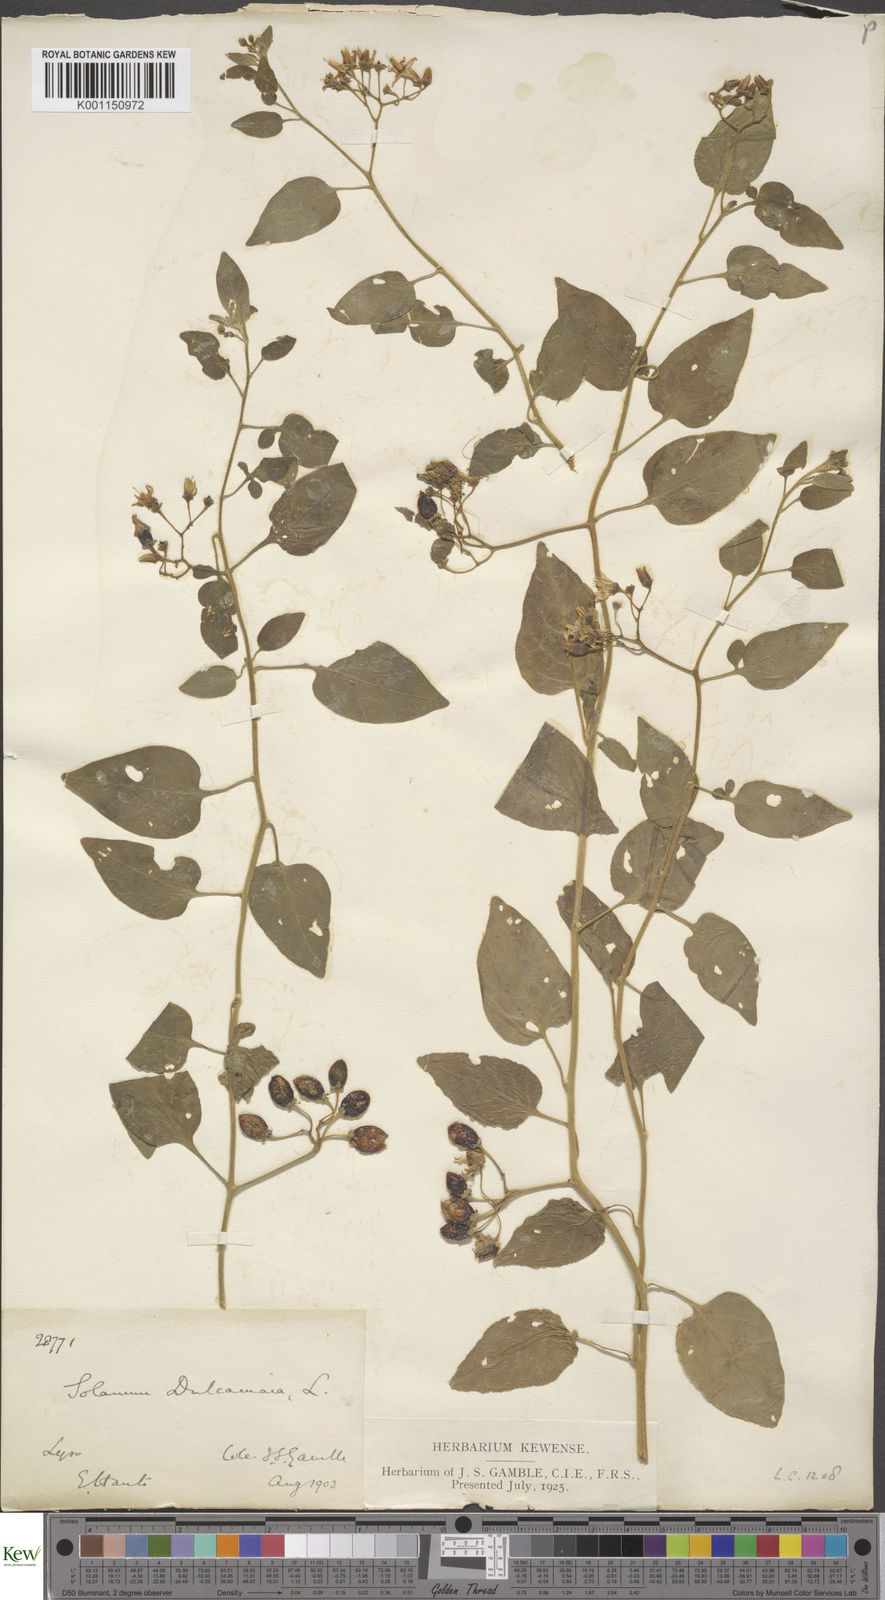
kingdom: Plantae
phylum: Tracheophyta
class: Magnoliopsida
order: Solanales
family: Solanaceae
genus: Solanum
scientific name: Solanum dulcamara
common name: Climbing nightshade
